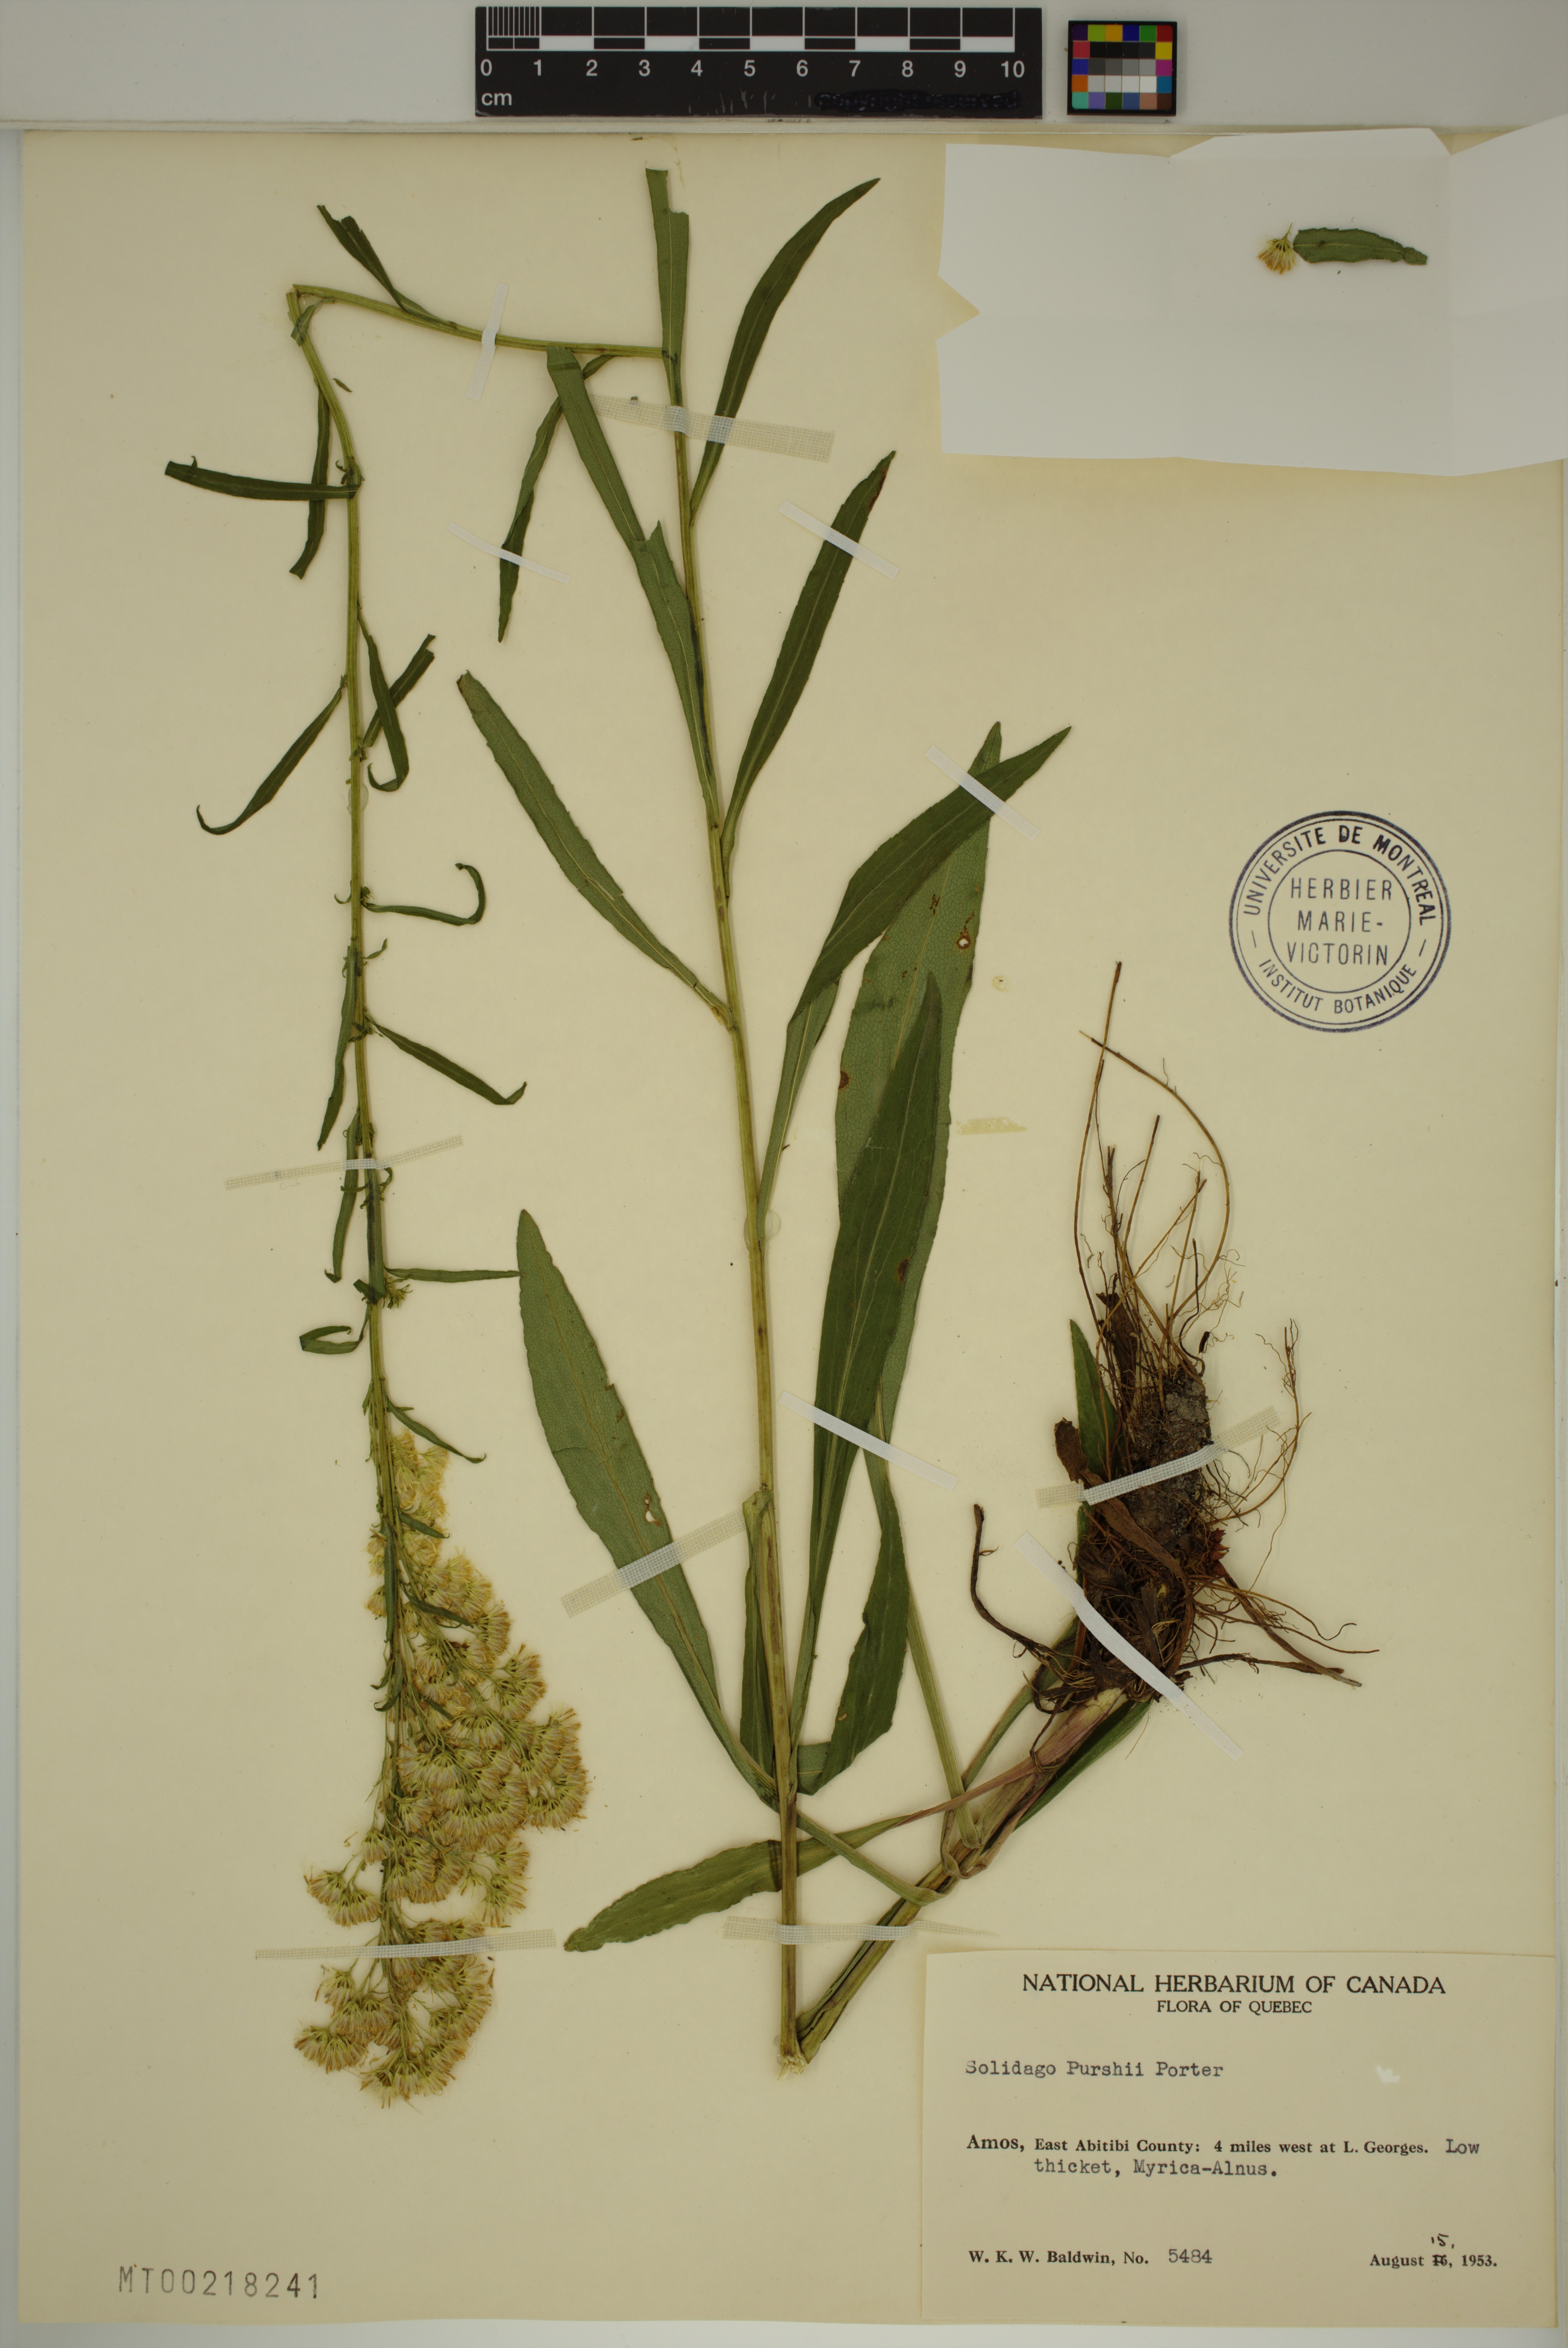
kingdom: Plantae
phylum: Tracheophyta
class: Magnoliopsida
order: Asterales
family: Asteraceae
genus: Solidago
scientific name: Solidago uliginosa
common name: Bog goldenrod
